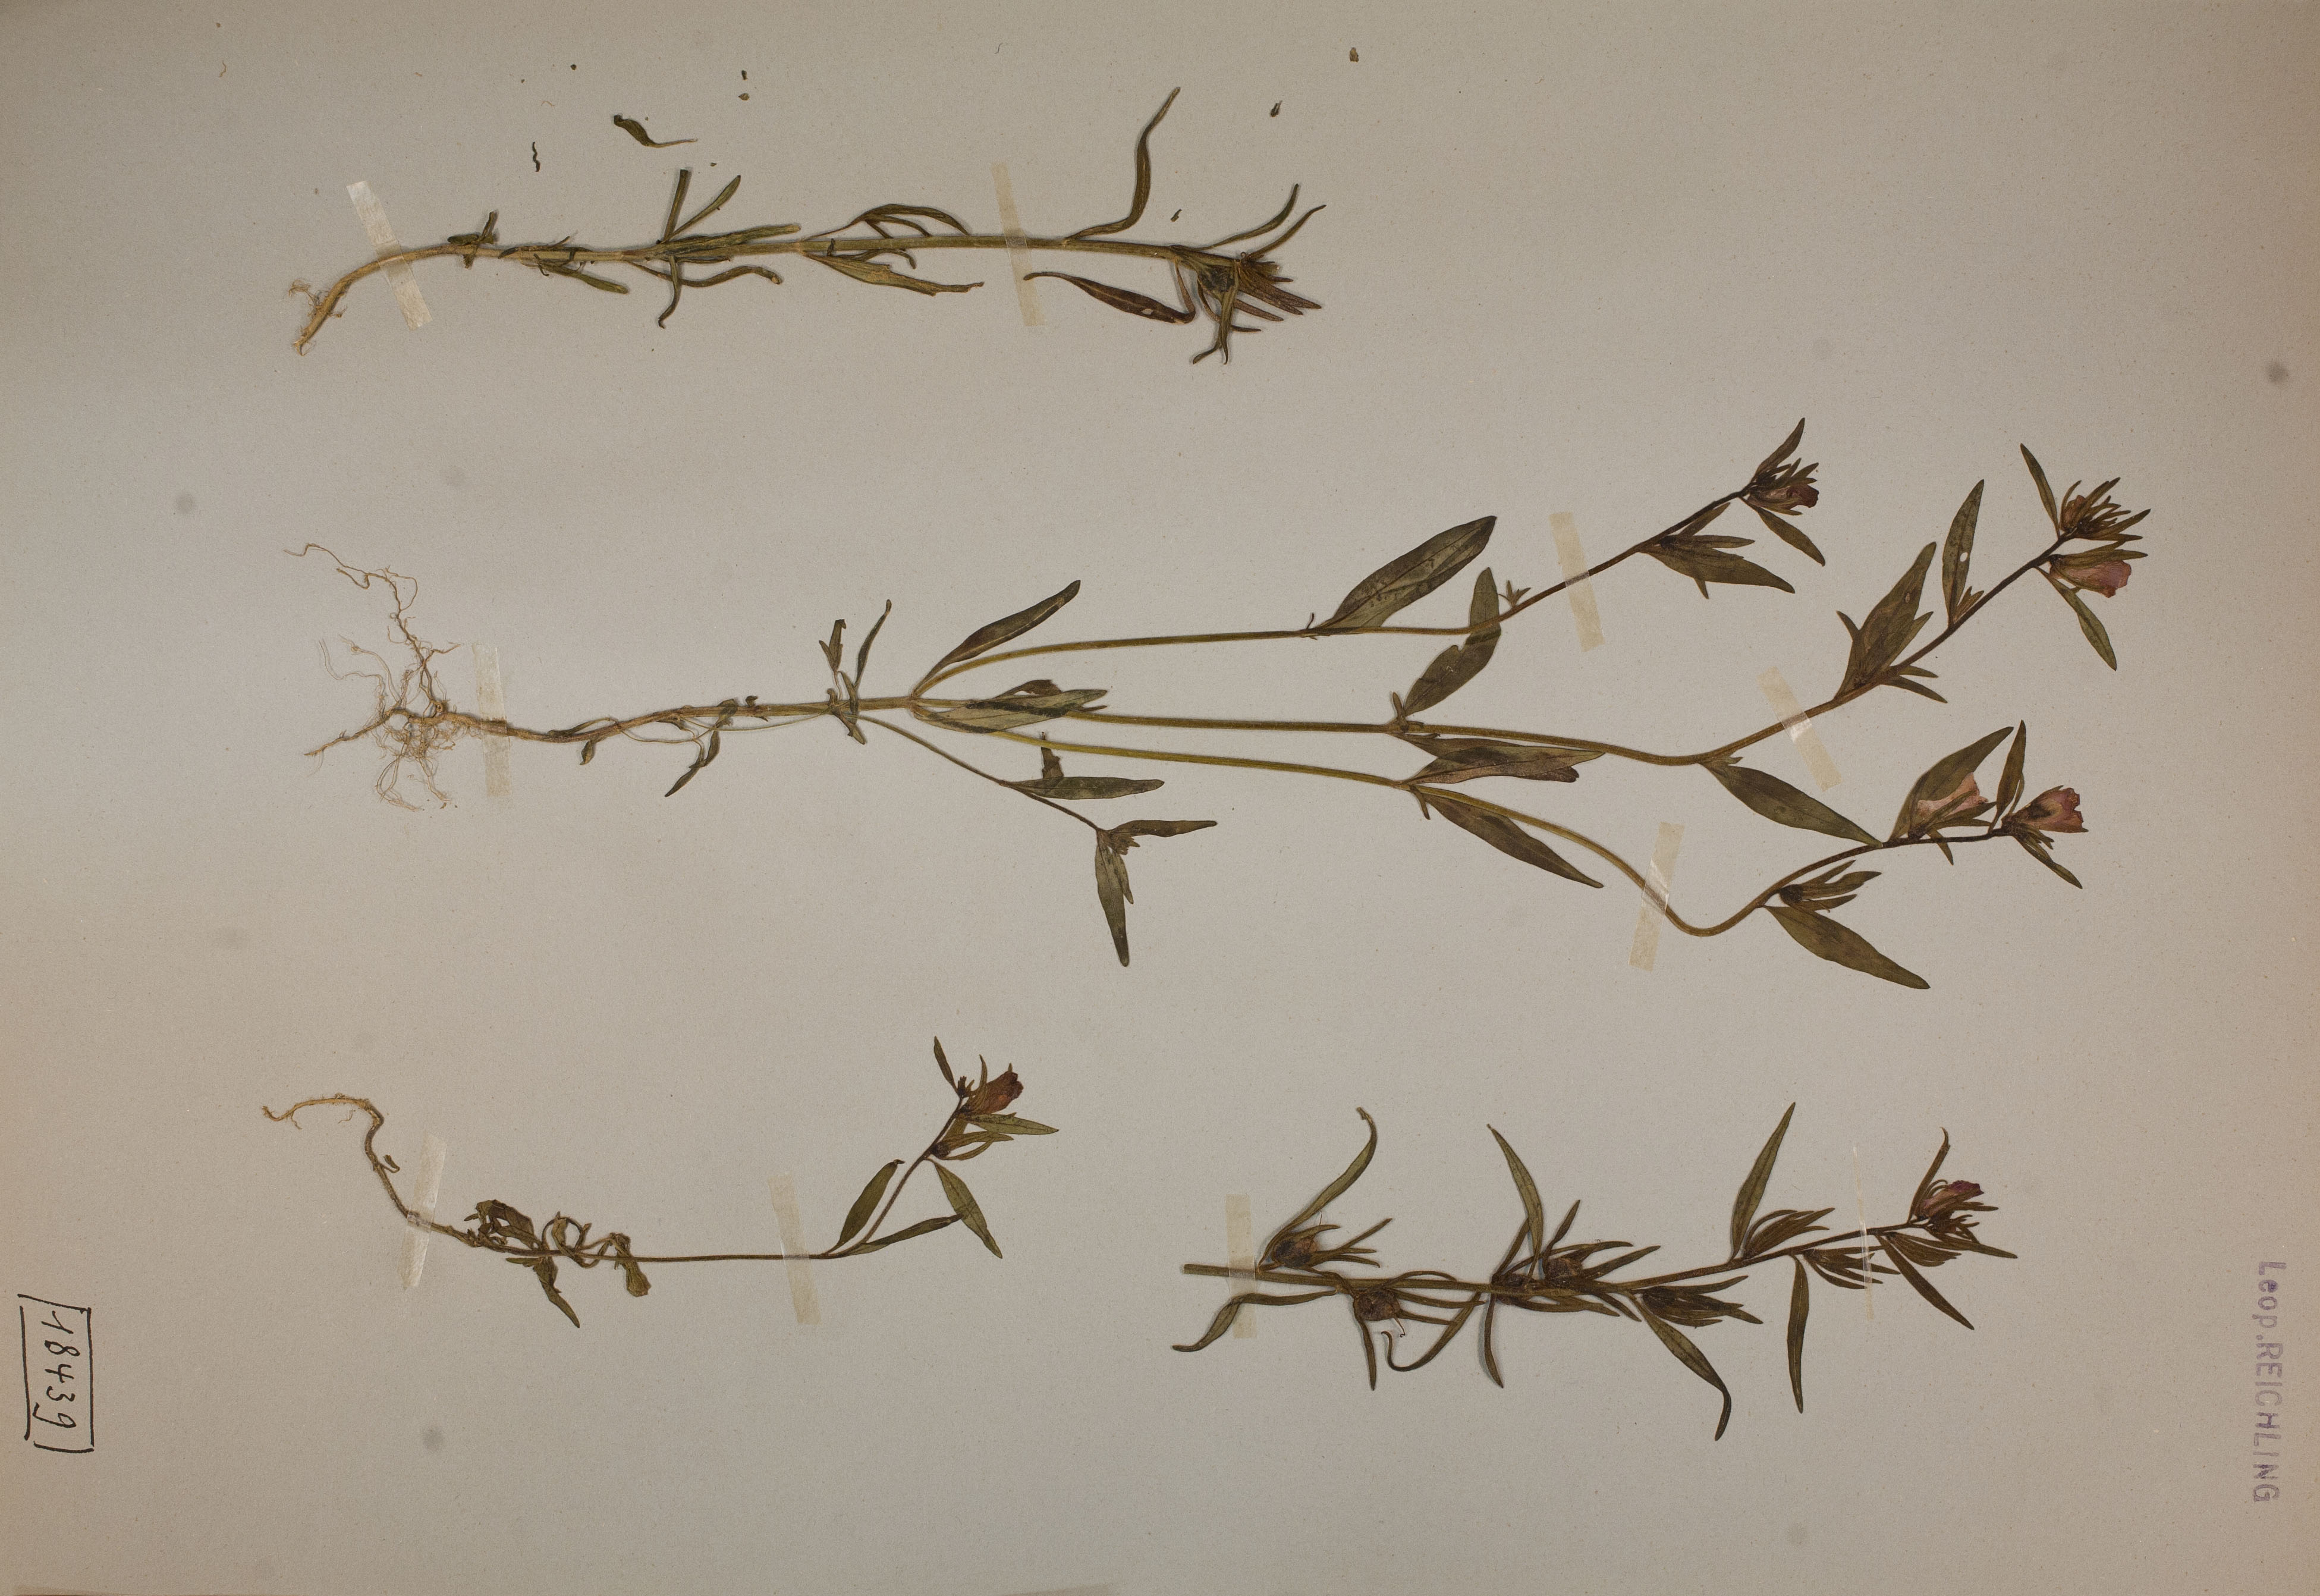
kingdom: Plantae
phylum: Tracheophyta
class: Magnoliopsida
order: Lamiales
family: Plantaginaceae
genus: Misopates
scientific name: Misopates orontium
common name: Weasel's-snout
